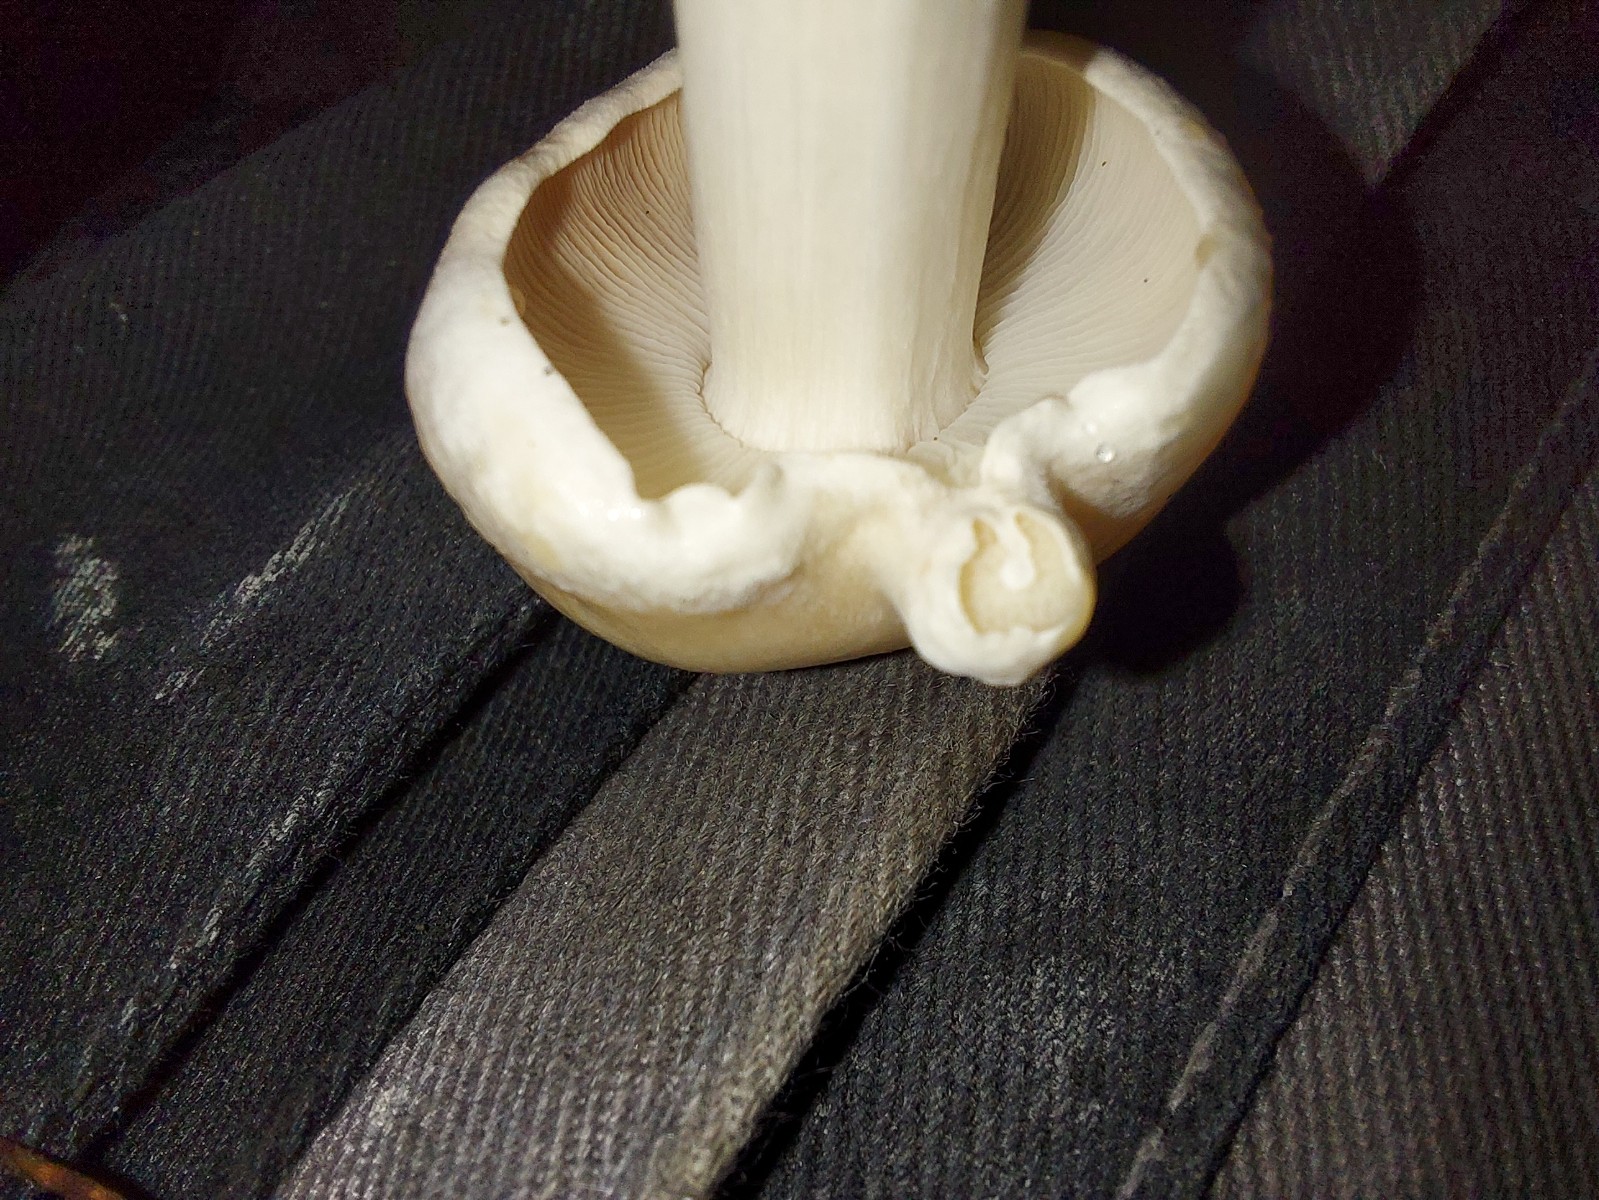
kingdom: Fungi
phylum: Basidiomycota
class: Agaricomycetes
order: Agaricales
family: Omphalotaceae
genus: Rhodocollybia
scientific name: Rhodocollybia maculata
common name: plettet fladhat
